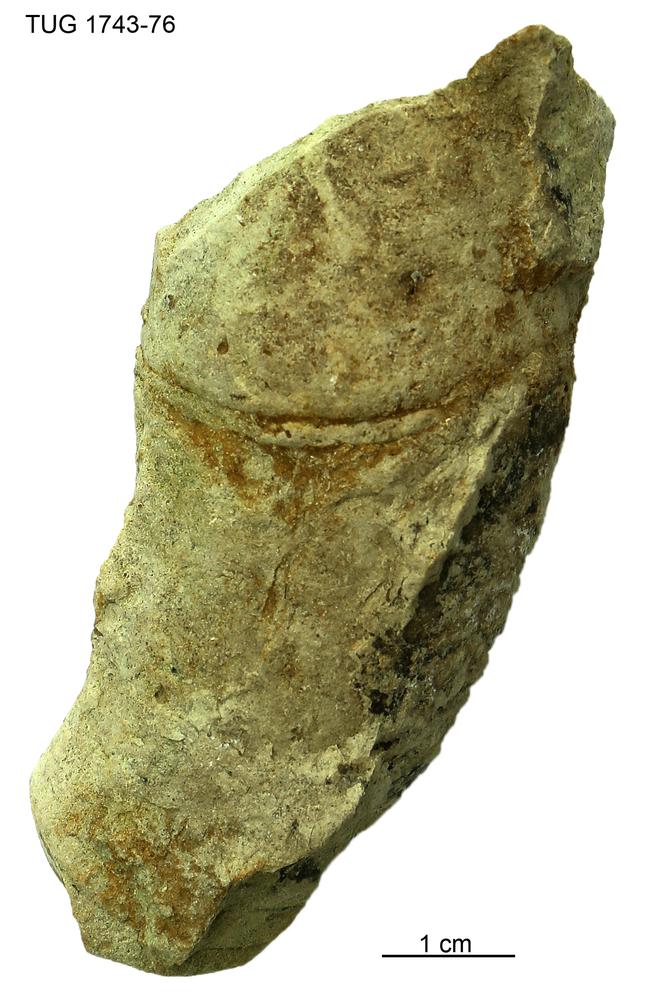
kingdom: Animalia
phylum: Mollusca
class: Cephalopoda
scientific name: Cephalopoda
